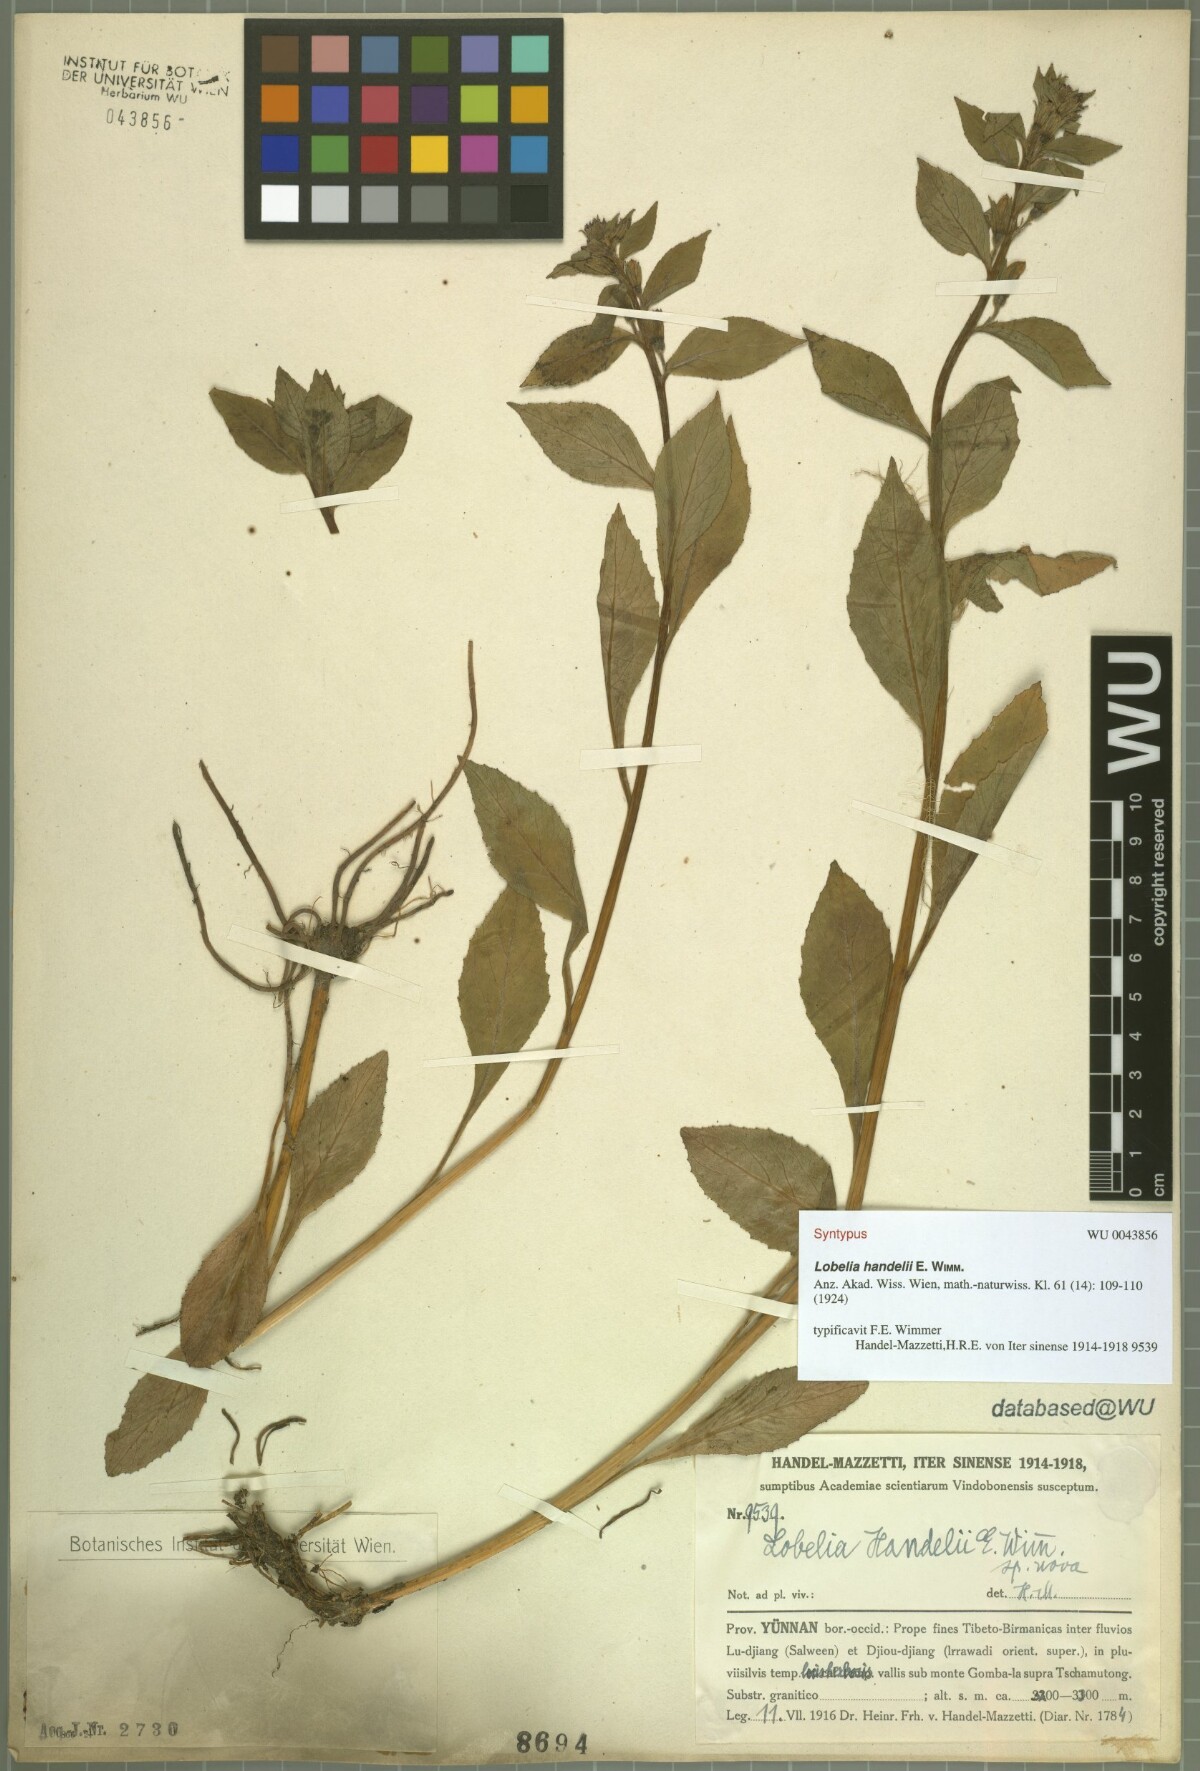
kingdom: Plantae
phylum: Tracheophyta
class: Magnoliopsida
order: Asterales
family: Campanulaceae
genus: Lobelia
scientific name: Lobelia pleotricha
